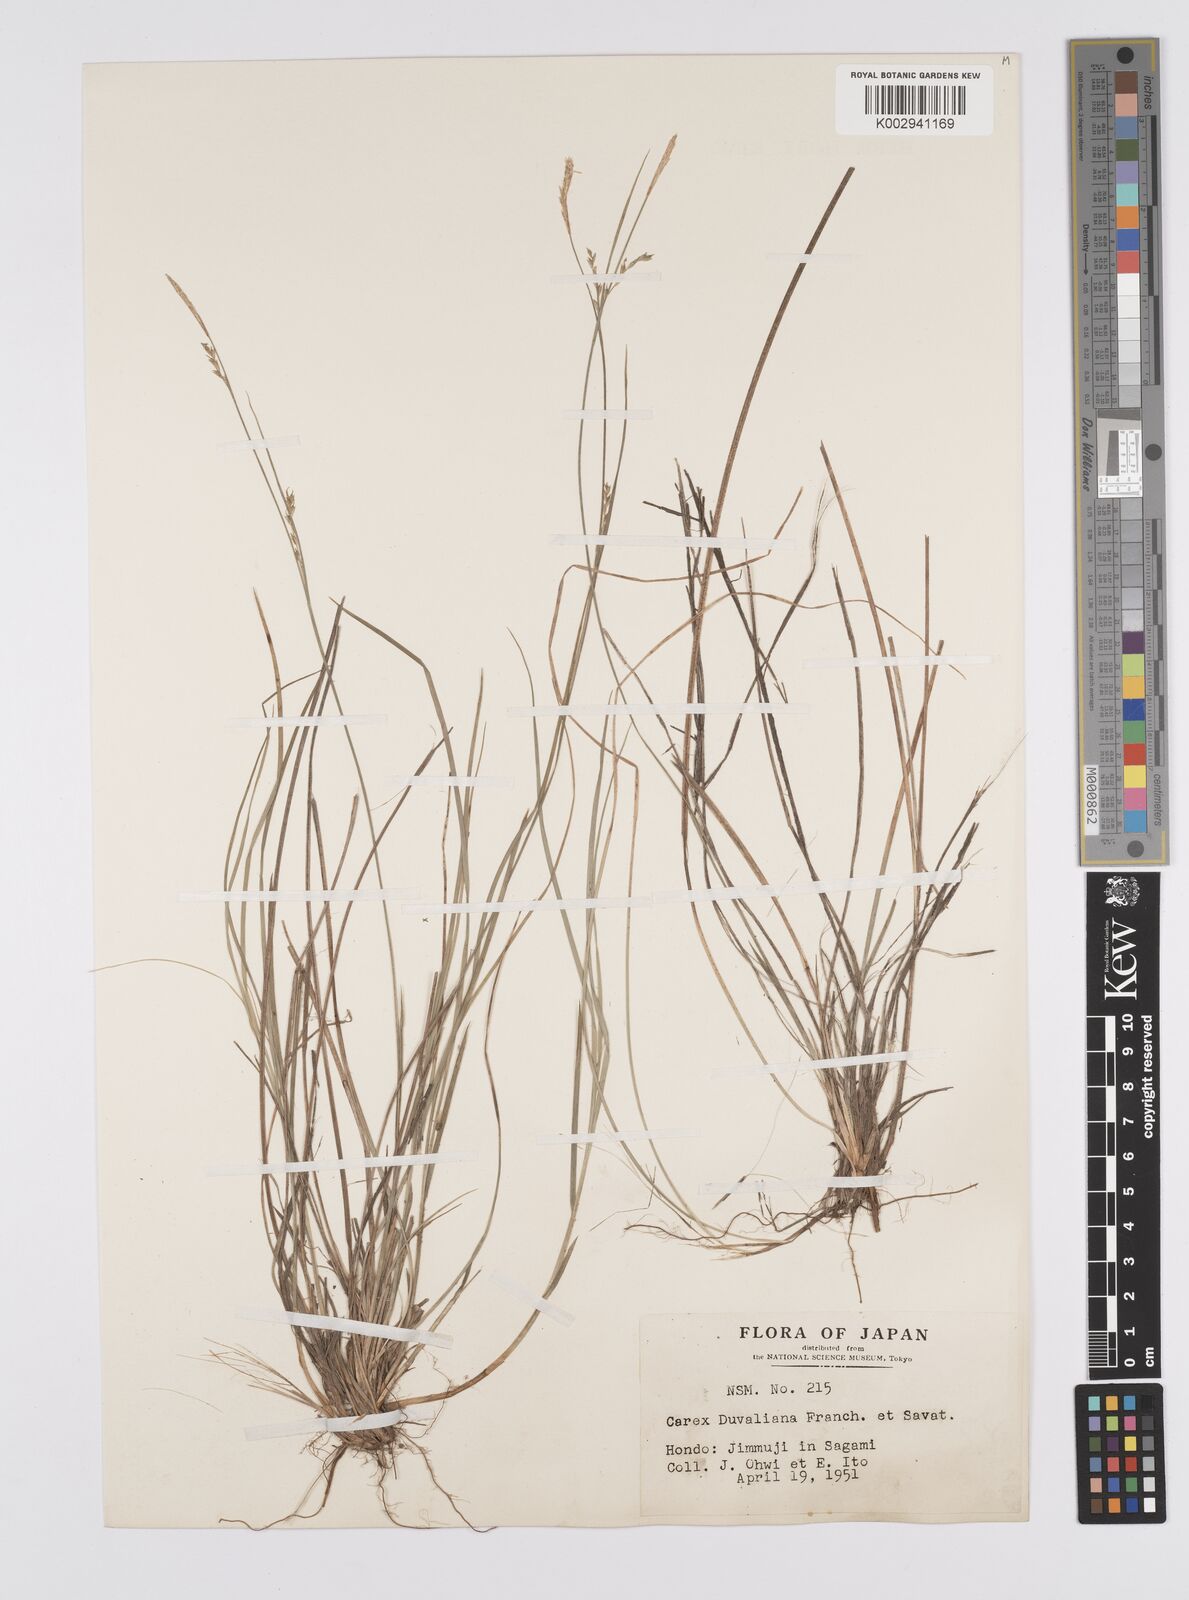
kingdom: Plantae
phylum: Tracheophyta
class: Liliopsida
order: Poales
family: Cyperaceae
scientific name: Cyperaceae
